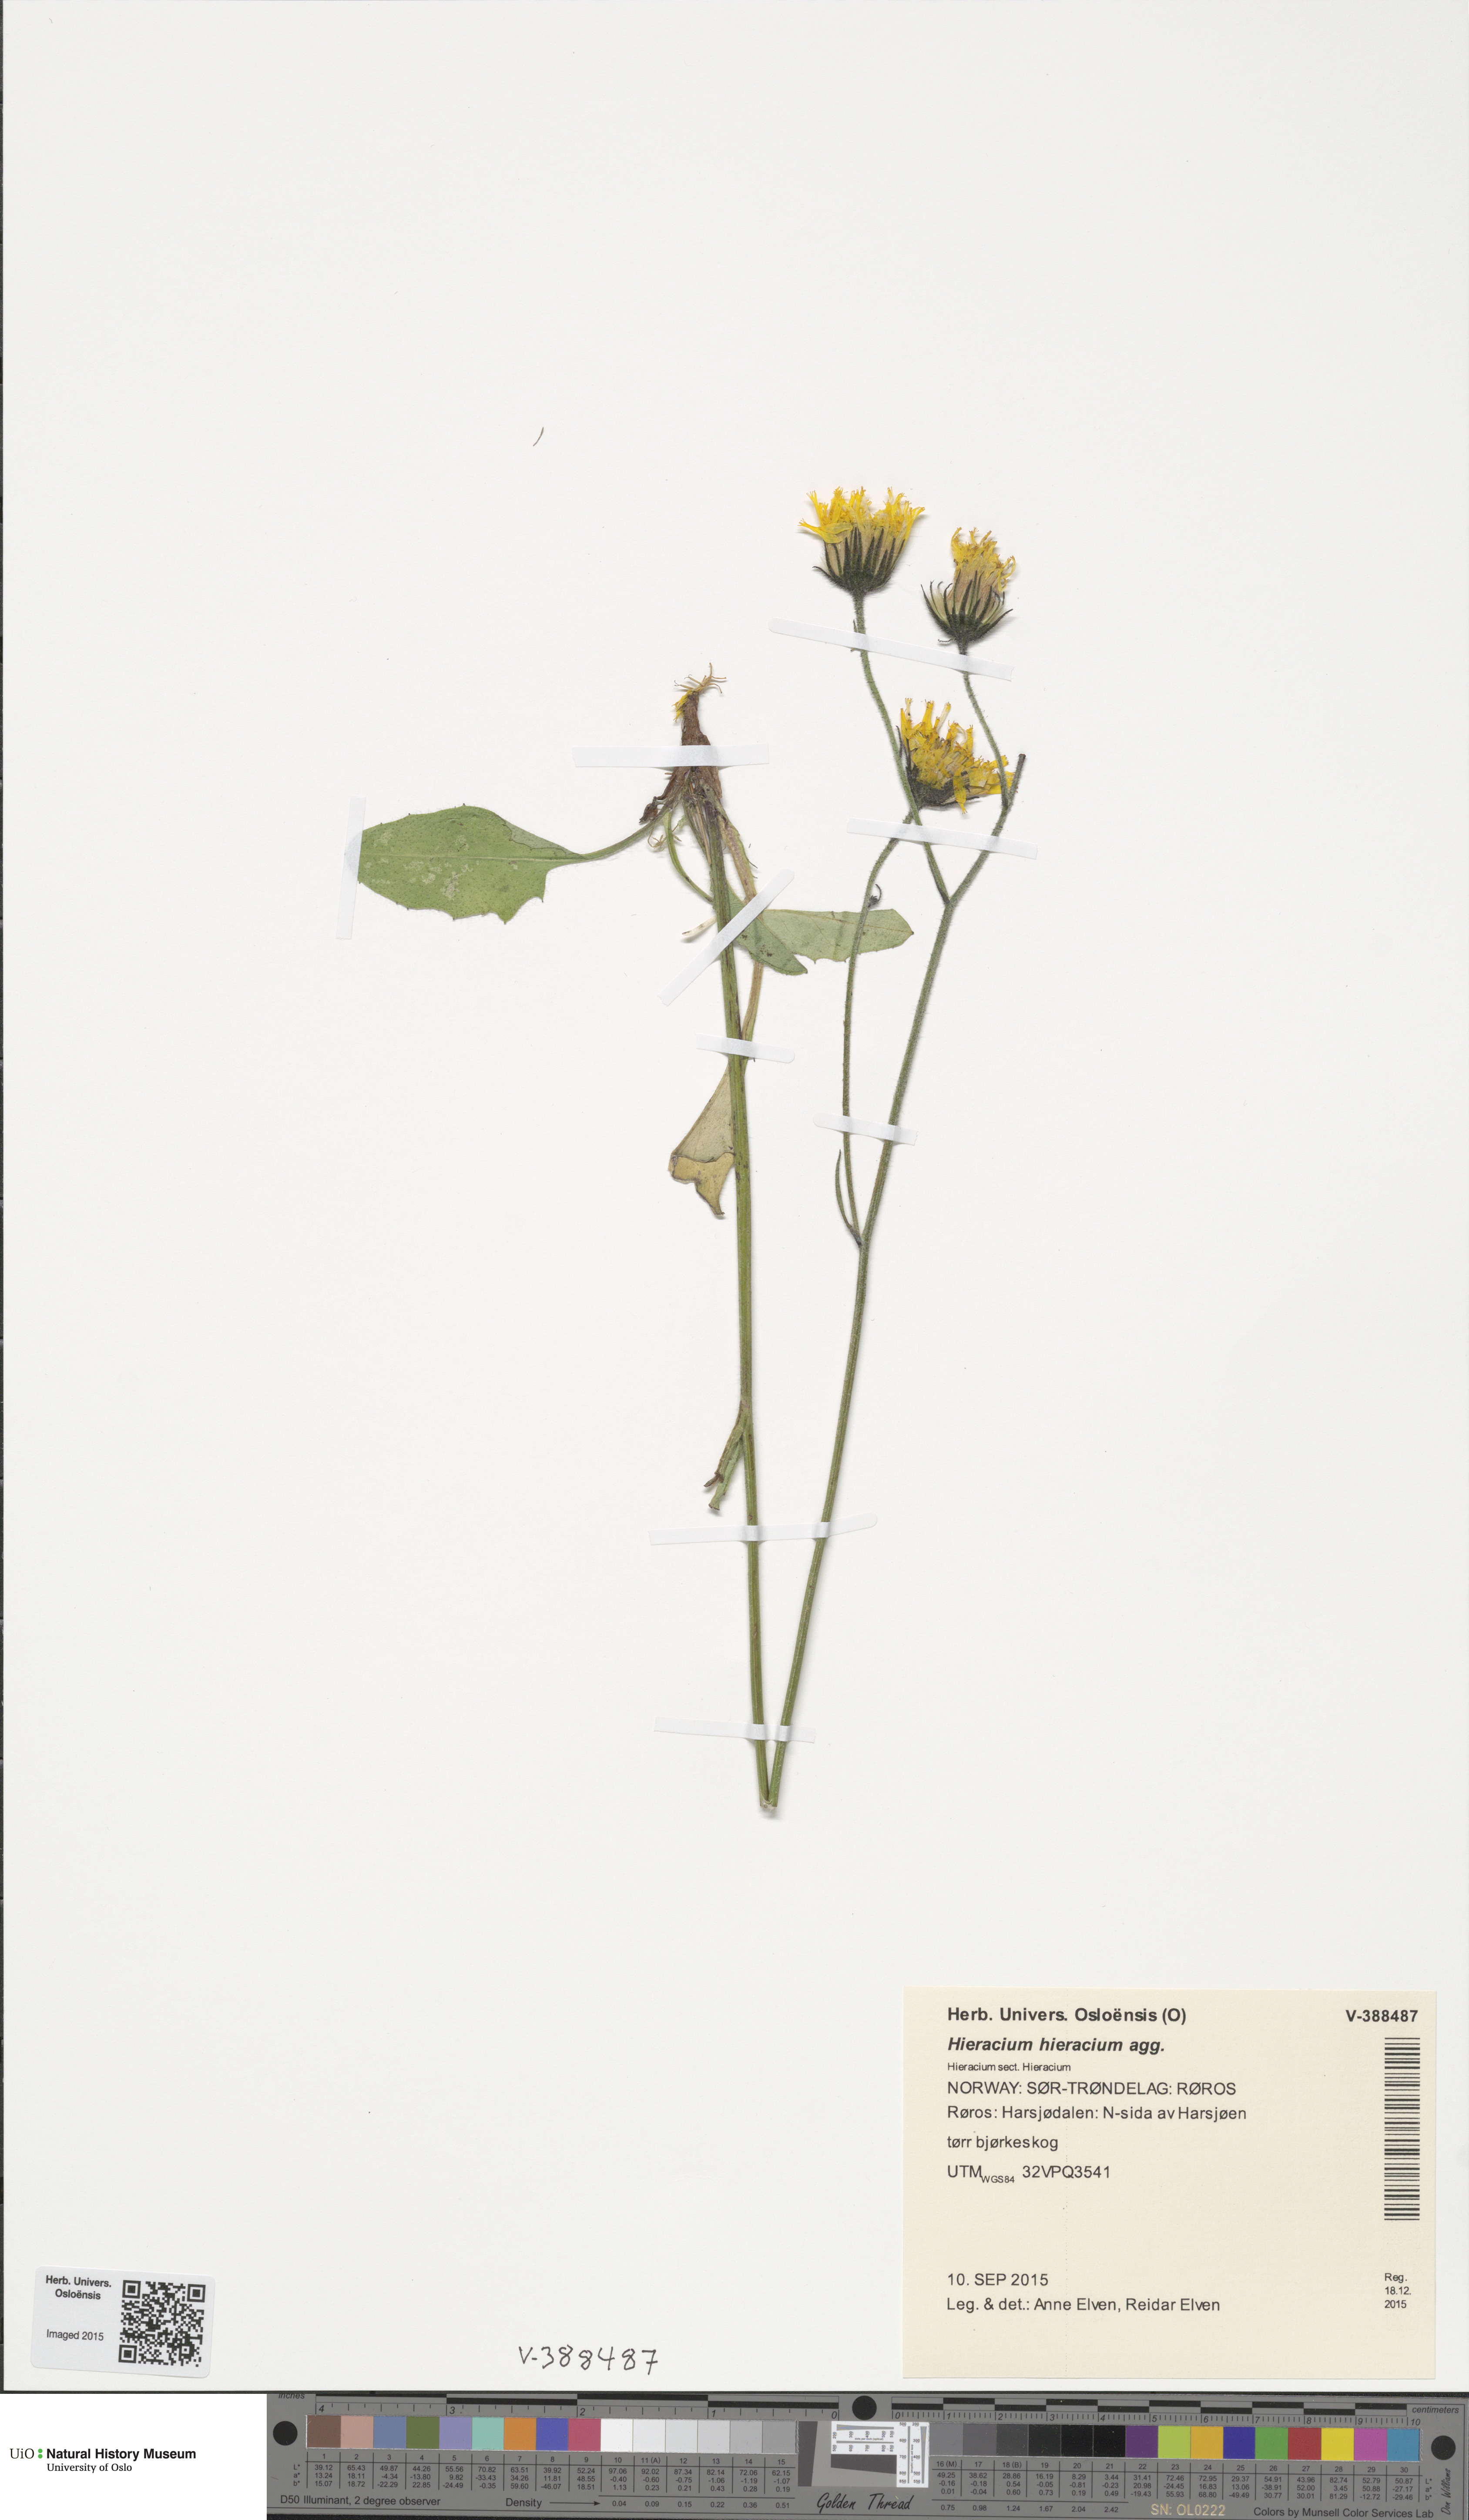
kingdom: Plantae
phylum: Tracheophyta
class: Magnoliopsida
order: Asterales
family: Asteraceae
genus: Hieracium
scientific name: Hieracium
